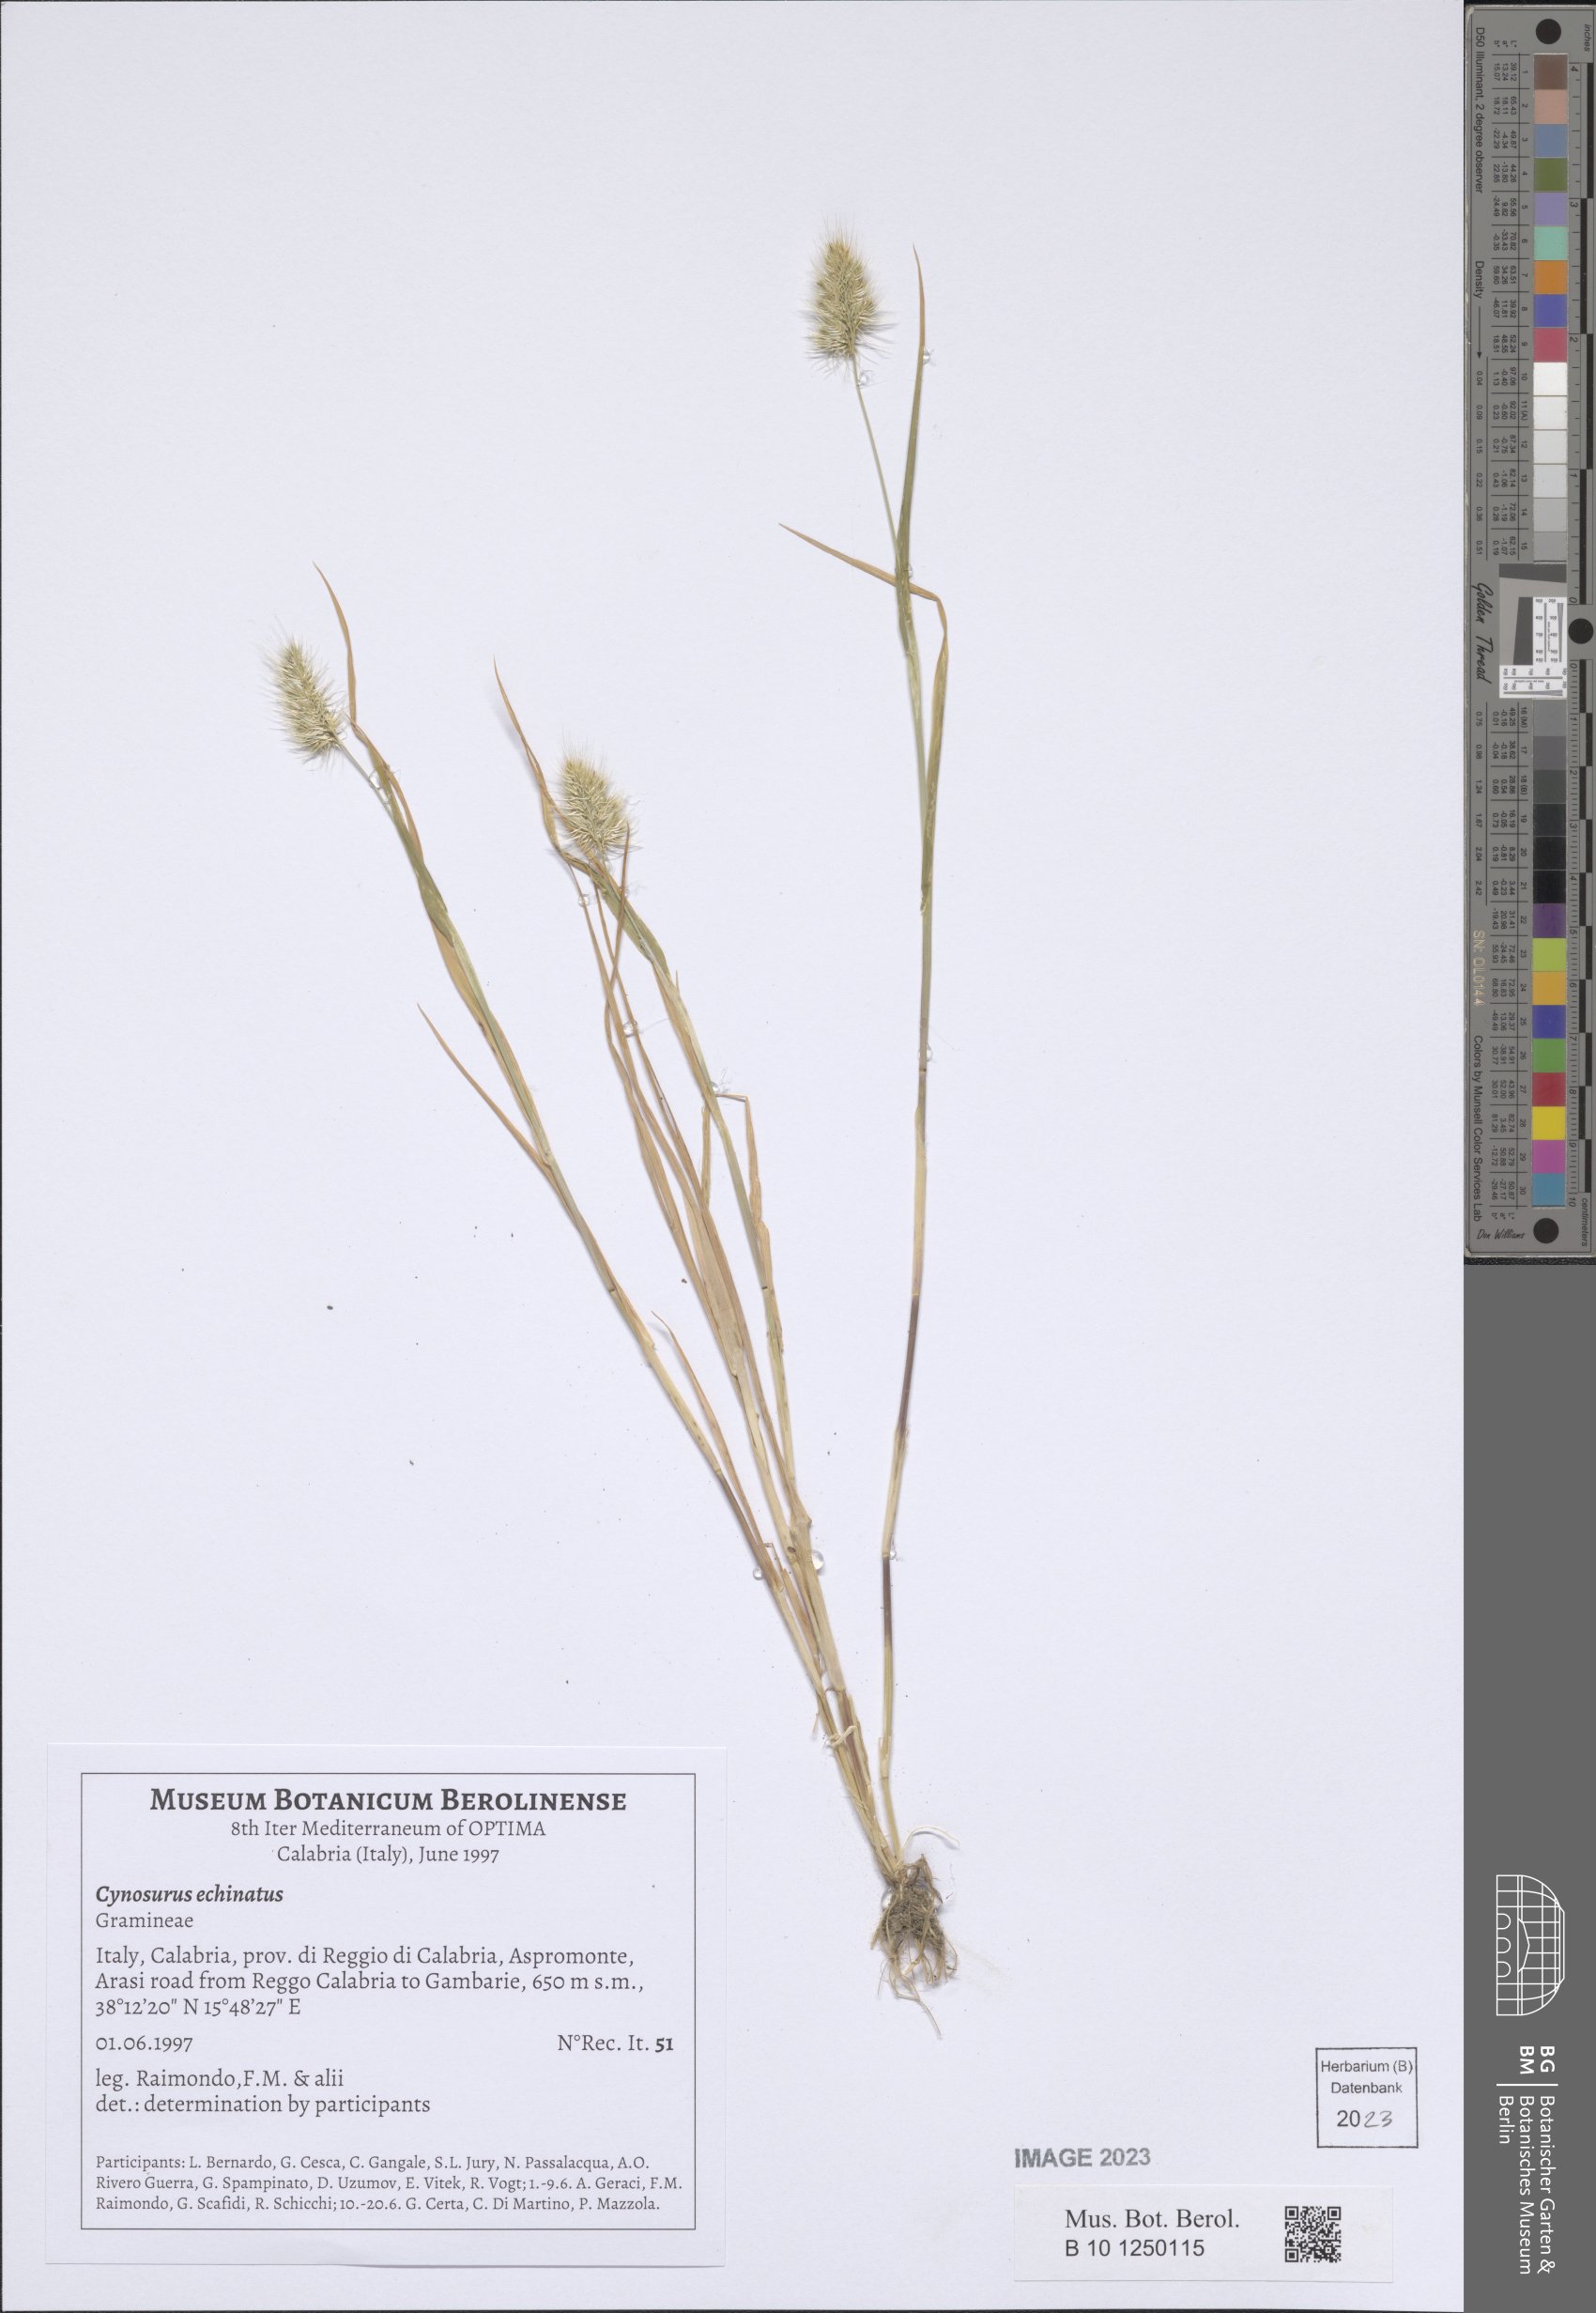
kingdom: Plantae
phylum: Tracheophyta
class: Liliopsida
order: Poales
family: Poaceae
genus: Cynosurus
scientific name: Cynosurus echinatus
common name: Rough dog's-tail
